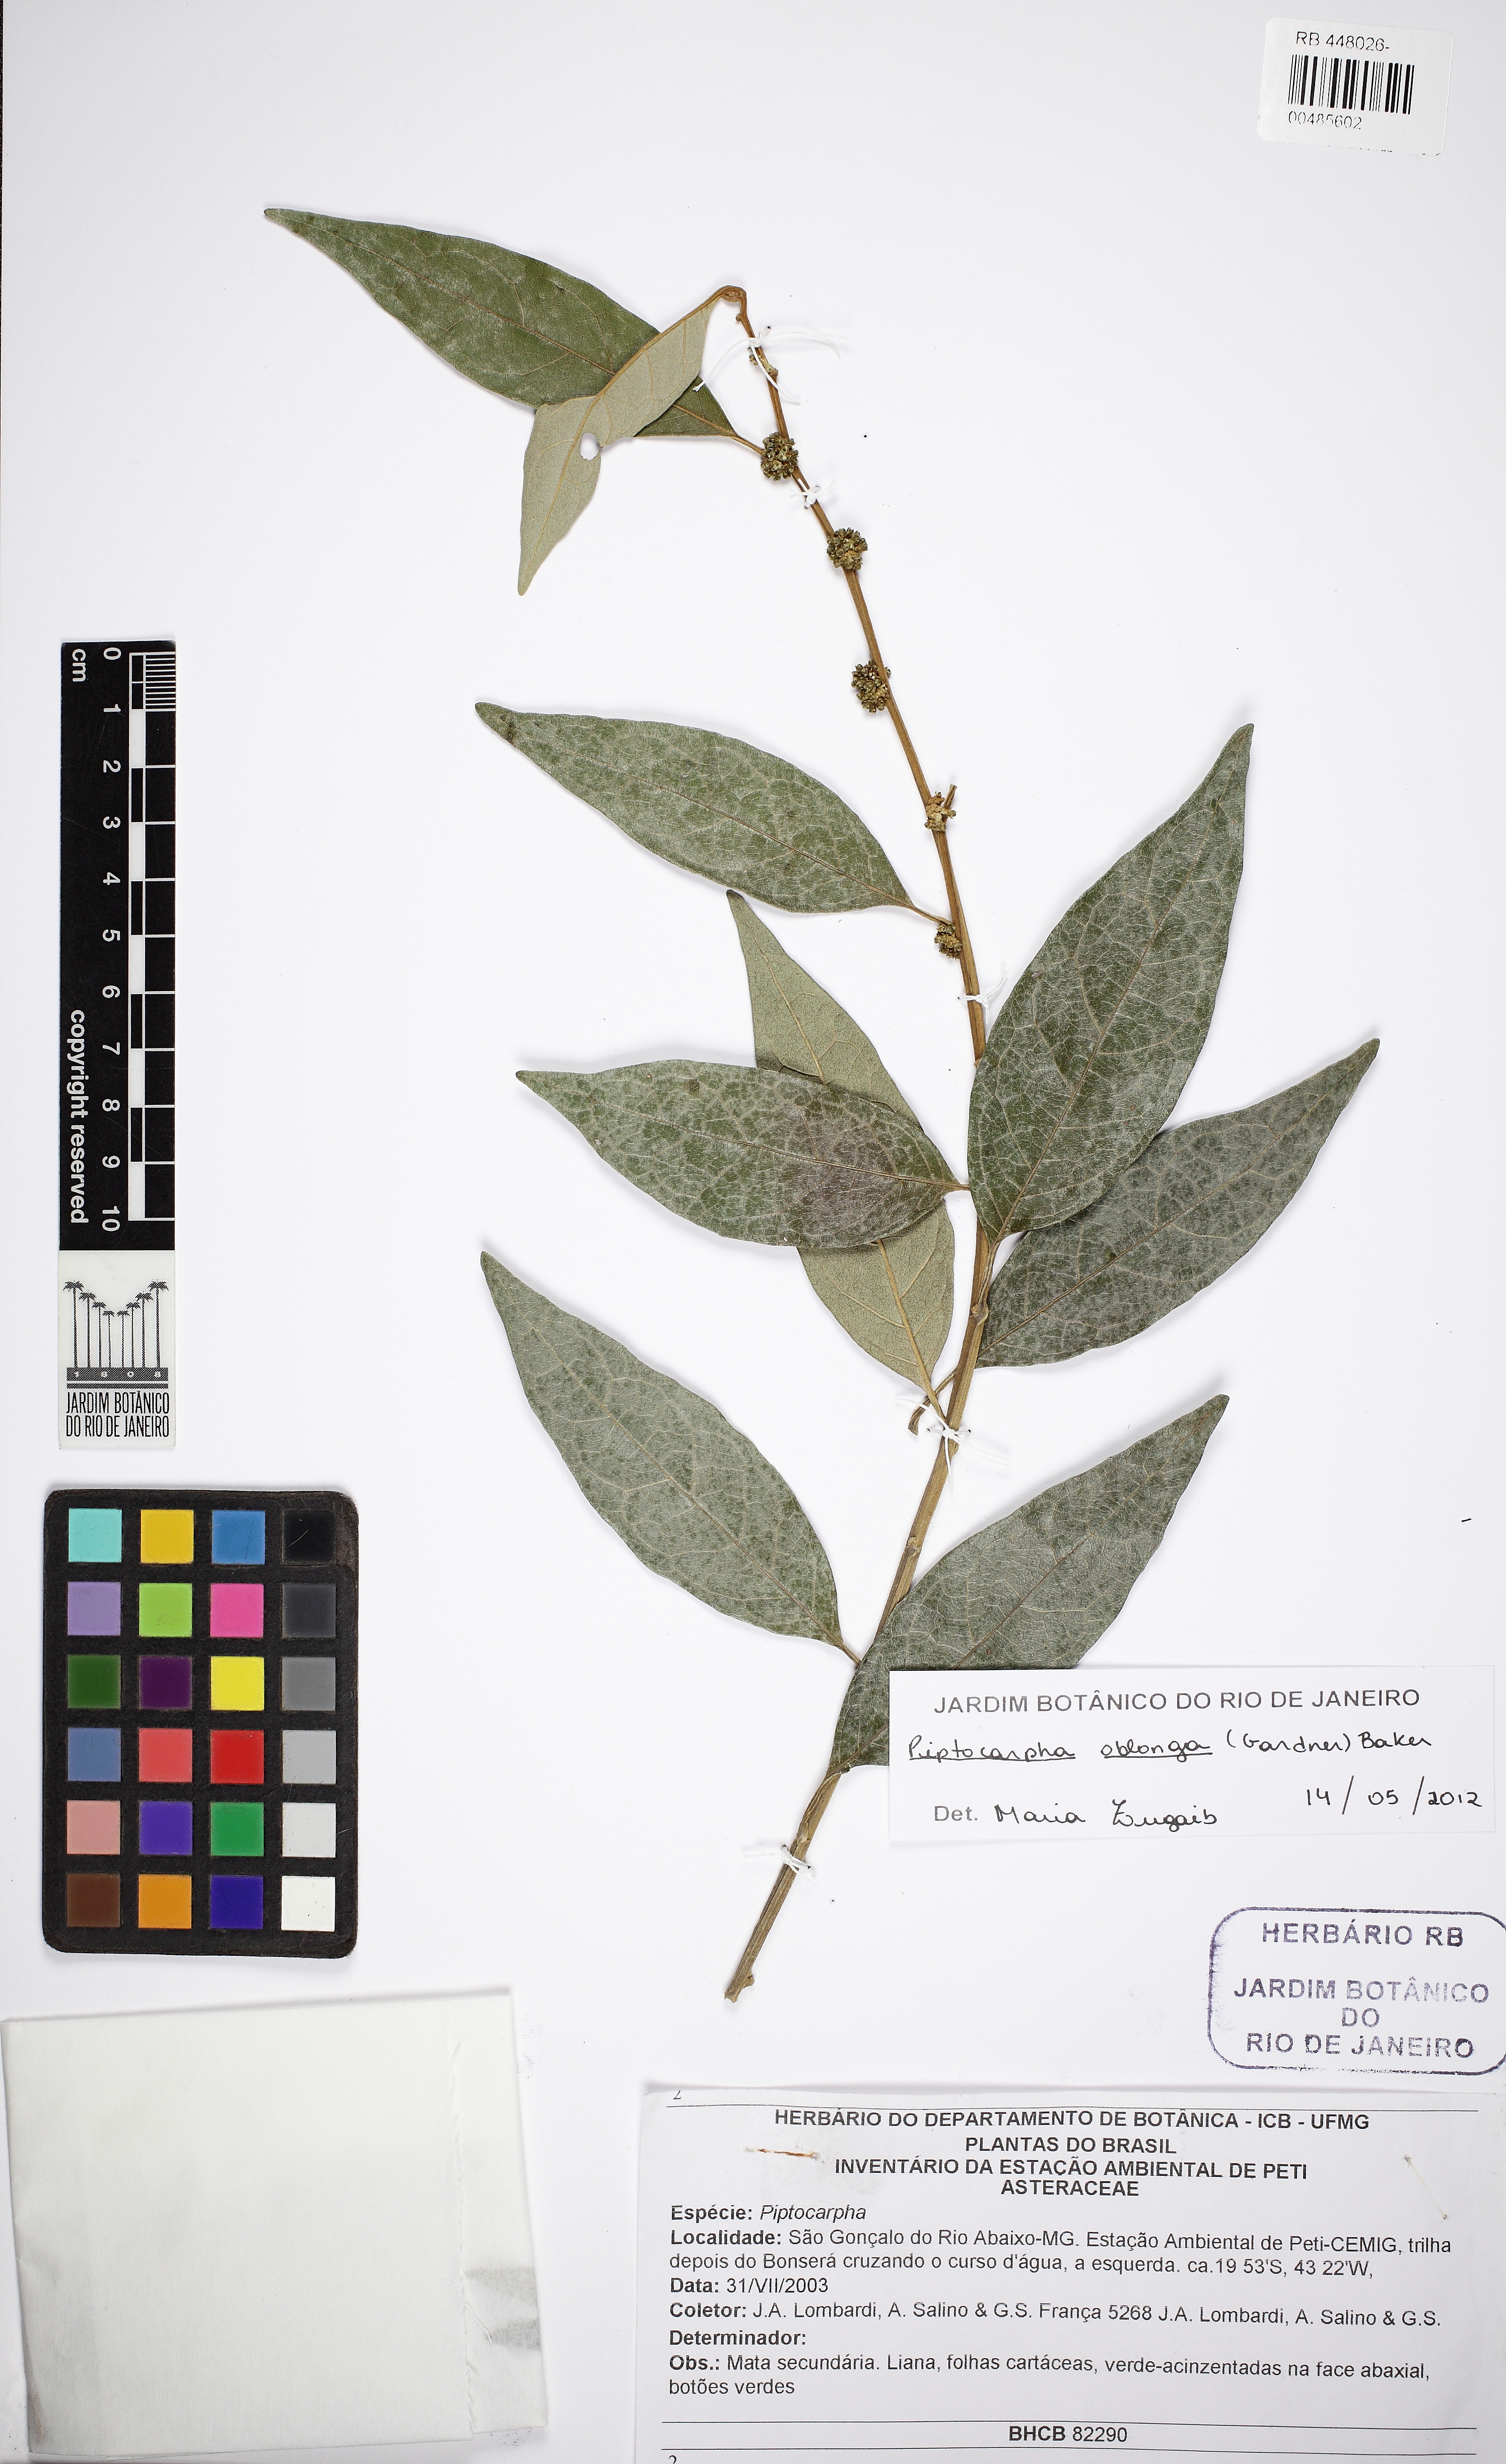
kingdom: Plantae
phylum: Tracheophyta
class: Magnoliopsida
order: Asterales
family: Asteraceae
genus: Piptocarpha
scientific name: Piptocarpha leprosa
